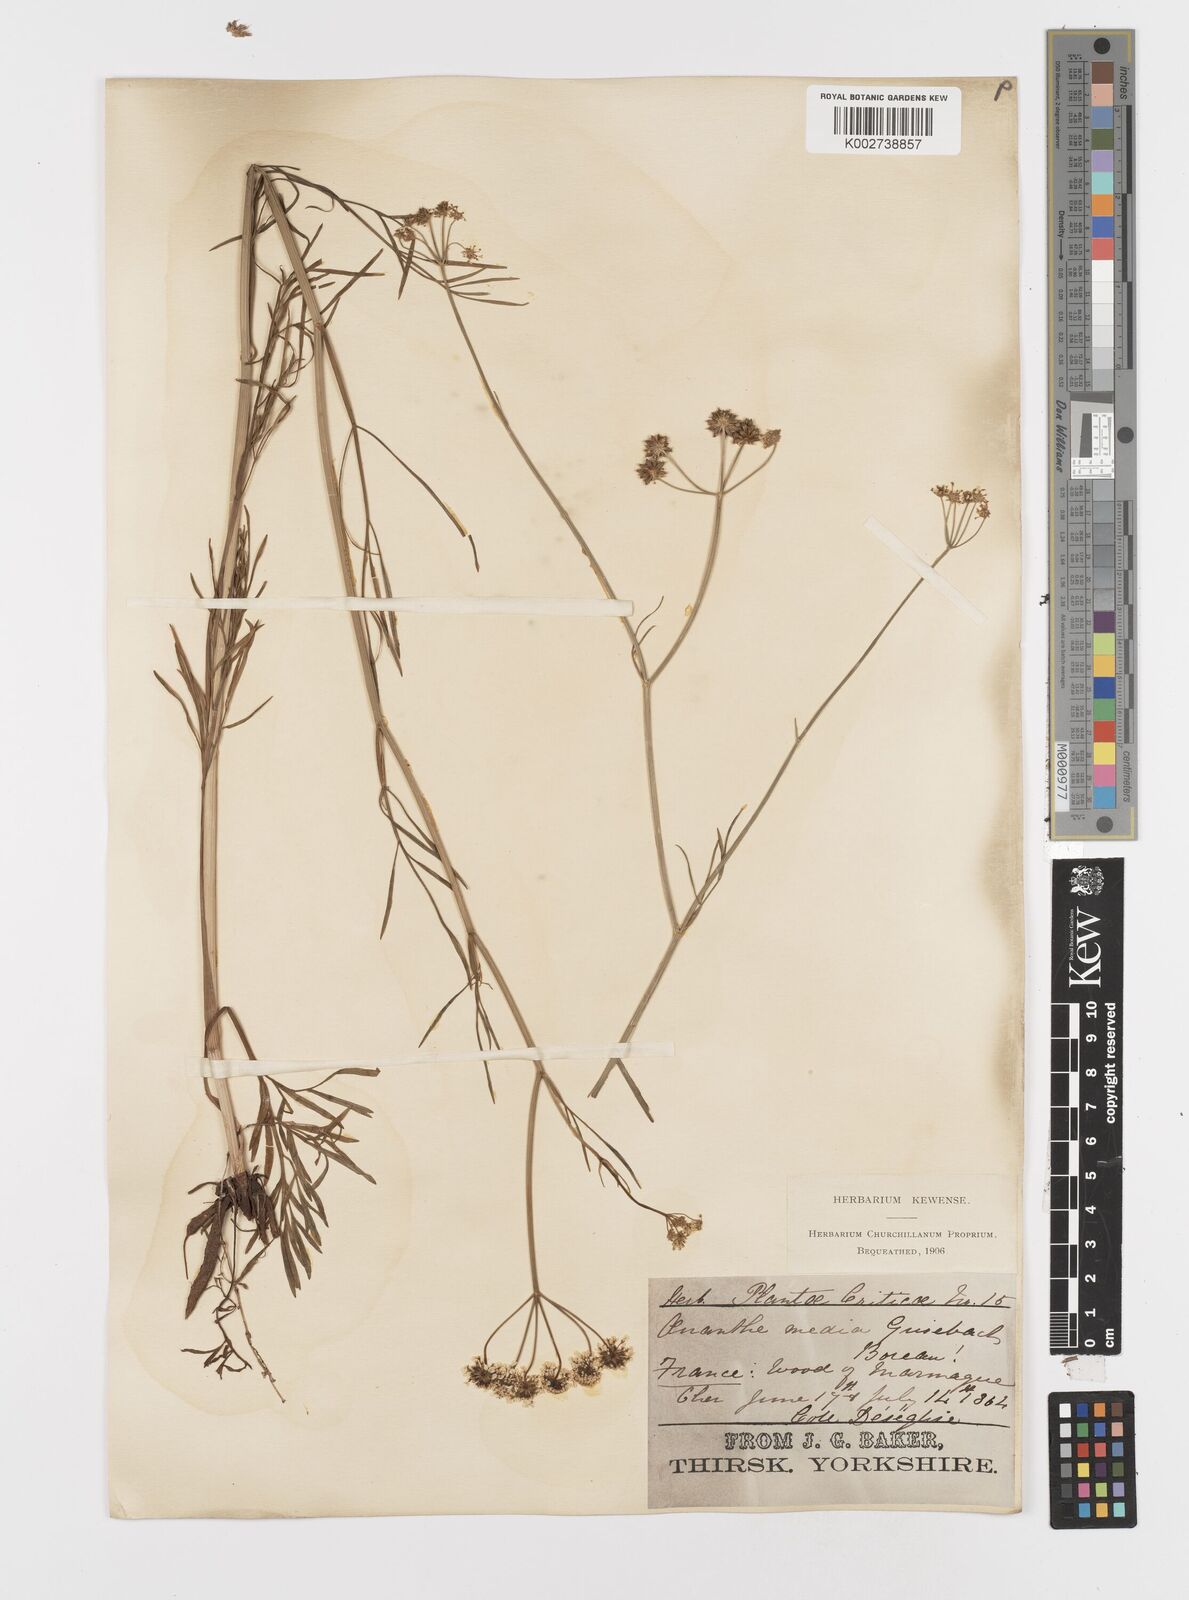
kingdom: Plantae
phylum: Tracheophyta
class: Magnoliopsida
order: Apiales
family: Apiaceae
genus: Oenanthe
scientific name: Oenanthe silaifolia
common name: Narrow-leaved water-dropwort
